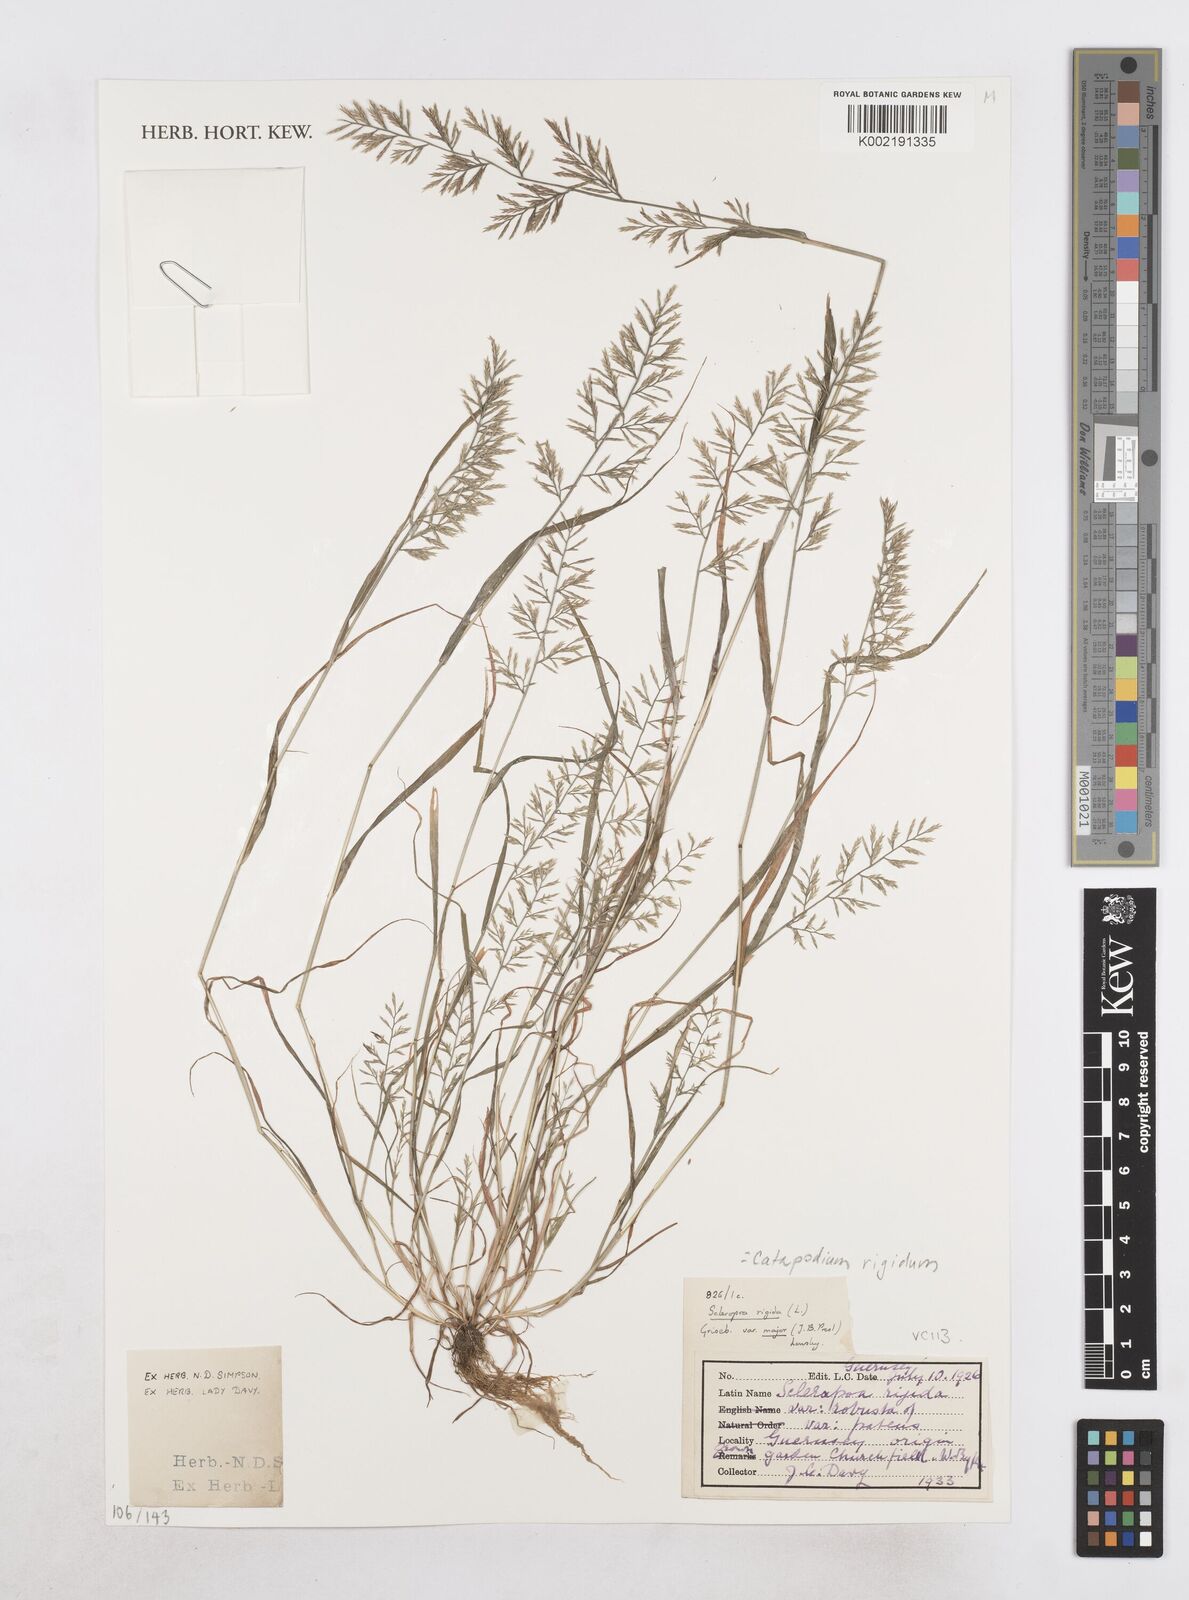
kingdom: Plantae
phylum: Tracheophyta
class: Liliopsida
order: Poales
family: Poaceae
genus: Catapodium
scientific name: Catapodium rigidum
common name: Fern-grass
